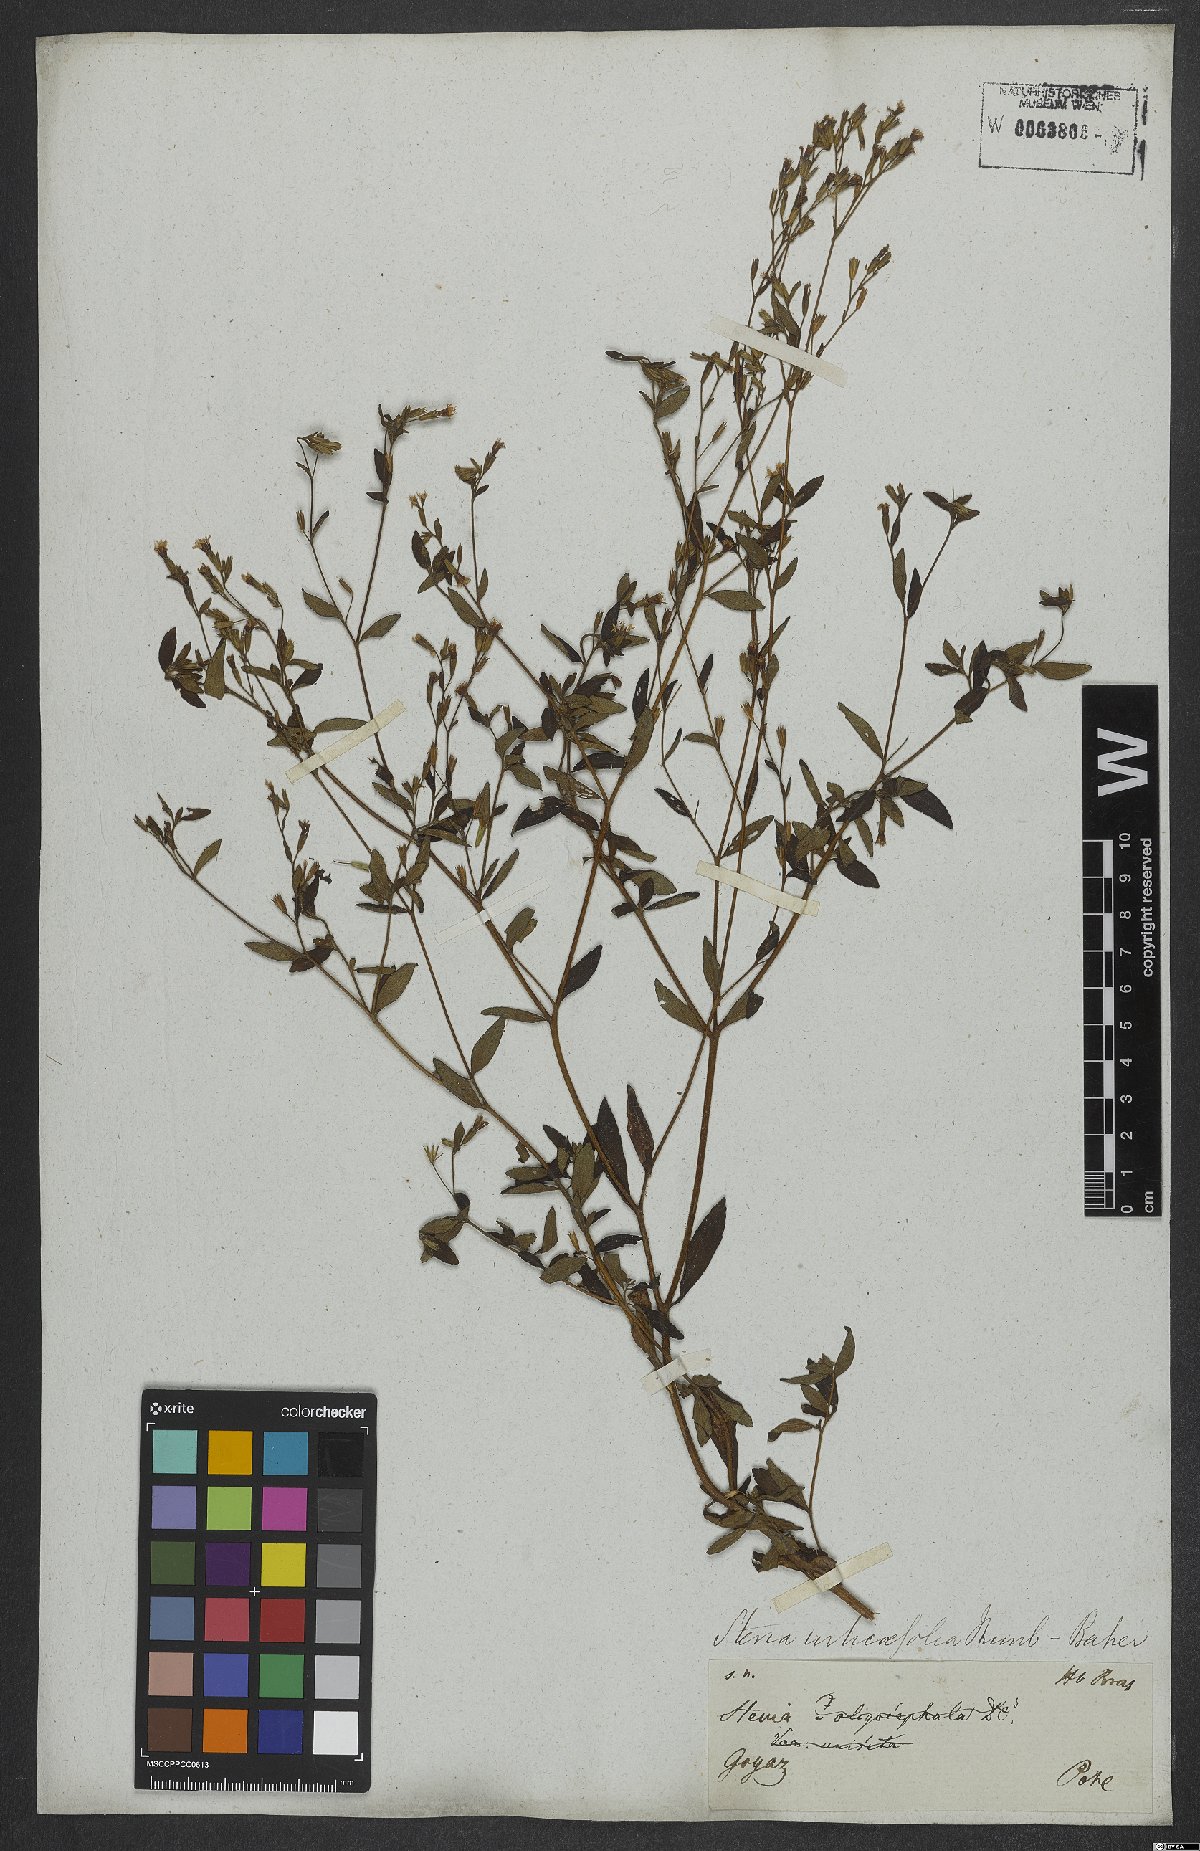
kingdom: Plantae
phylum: Tracheophyta
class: Magnoliopsida
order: Asterales
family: Asteraceae
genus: Stevia
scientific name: Stevia urticifolia
